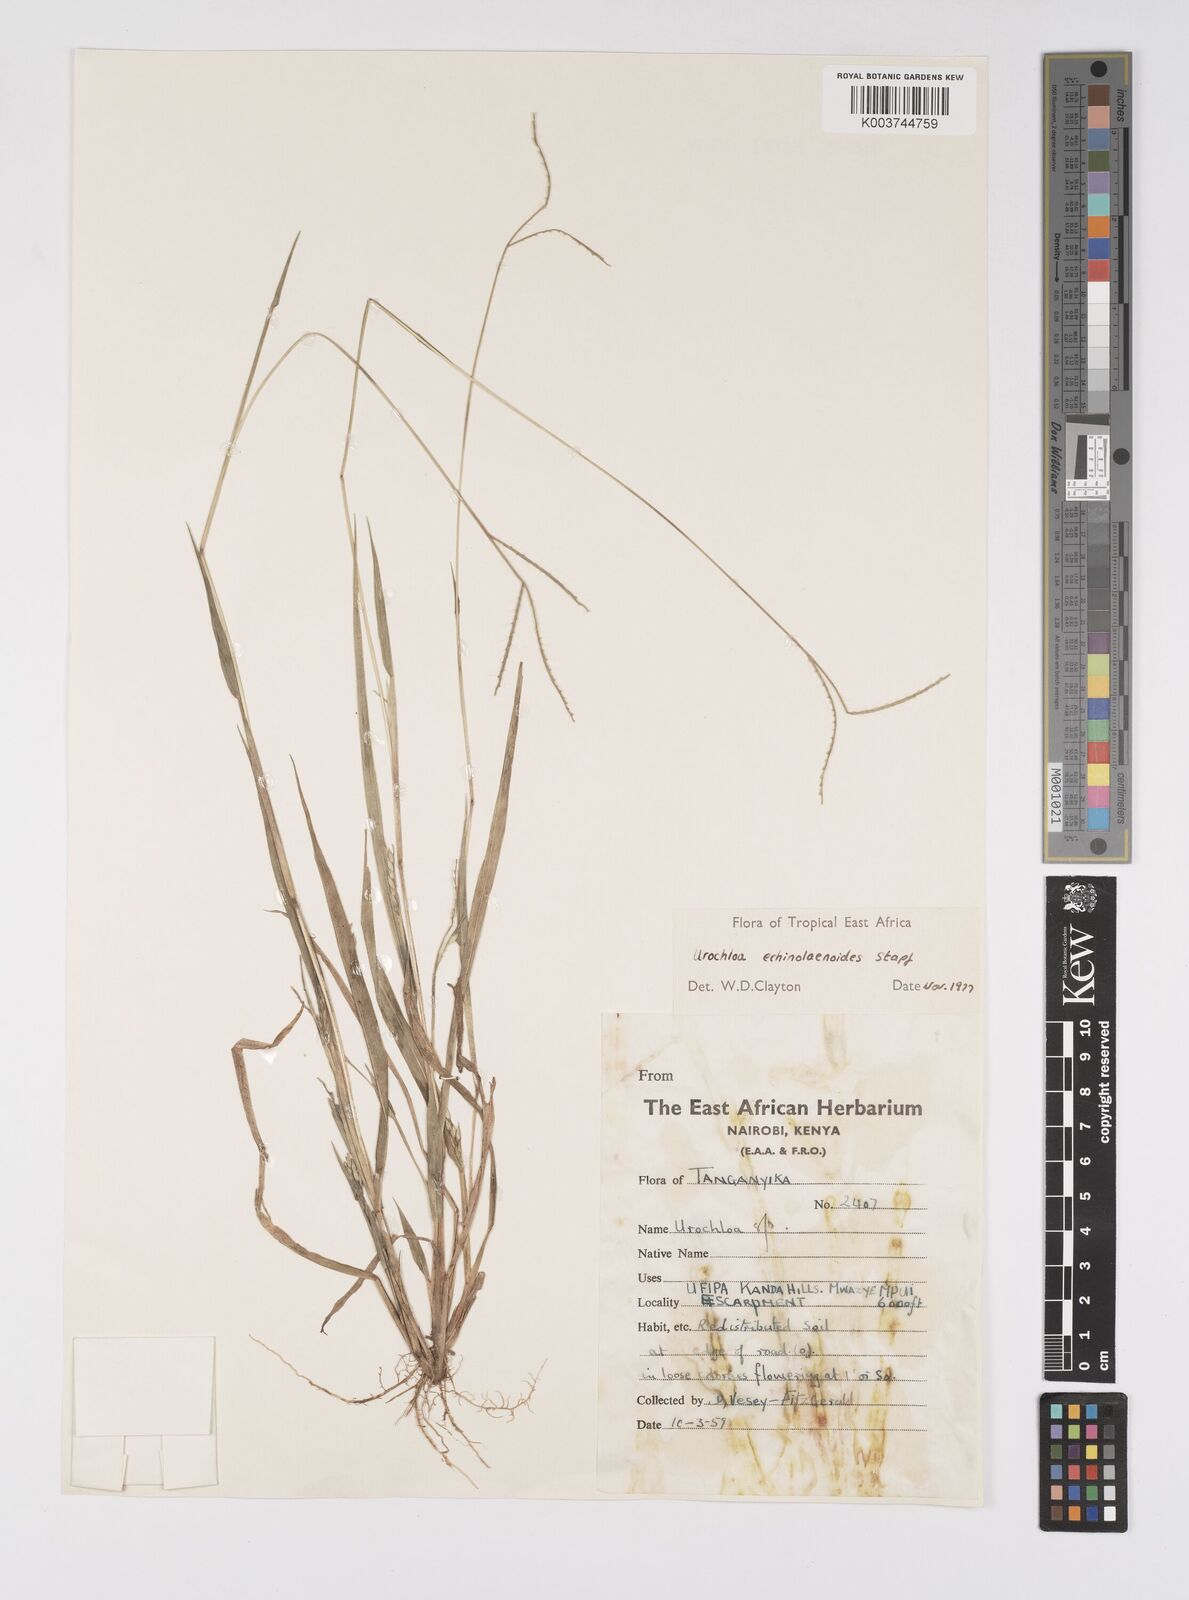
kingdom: Plantae
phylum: Tracheophyta
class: Liliopsida
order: Poales
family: Poaceae
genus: Urochloa
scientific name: Urochloa echinolaenoides
